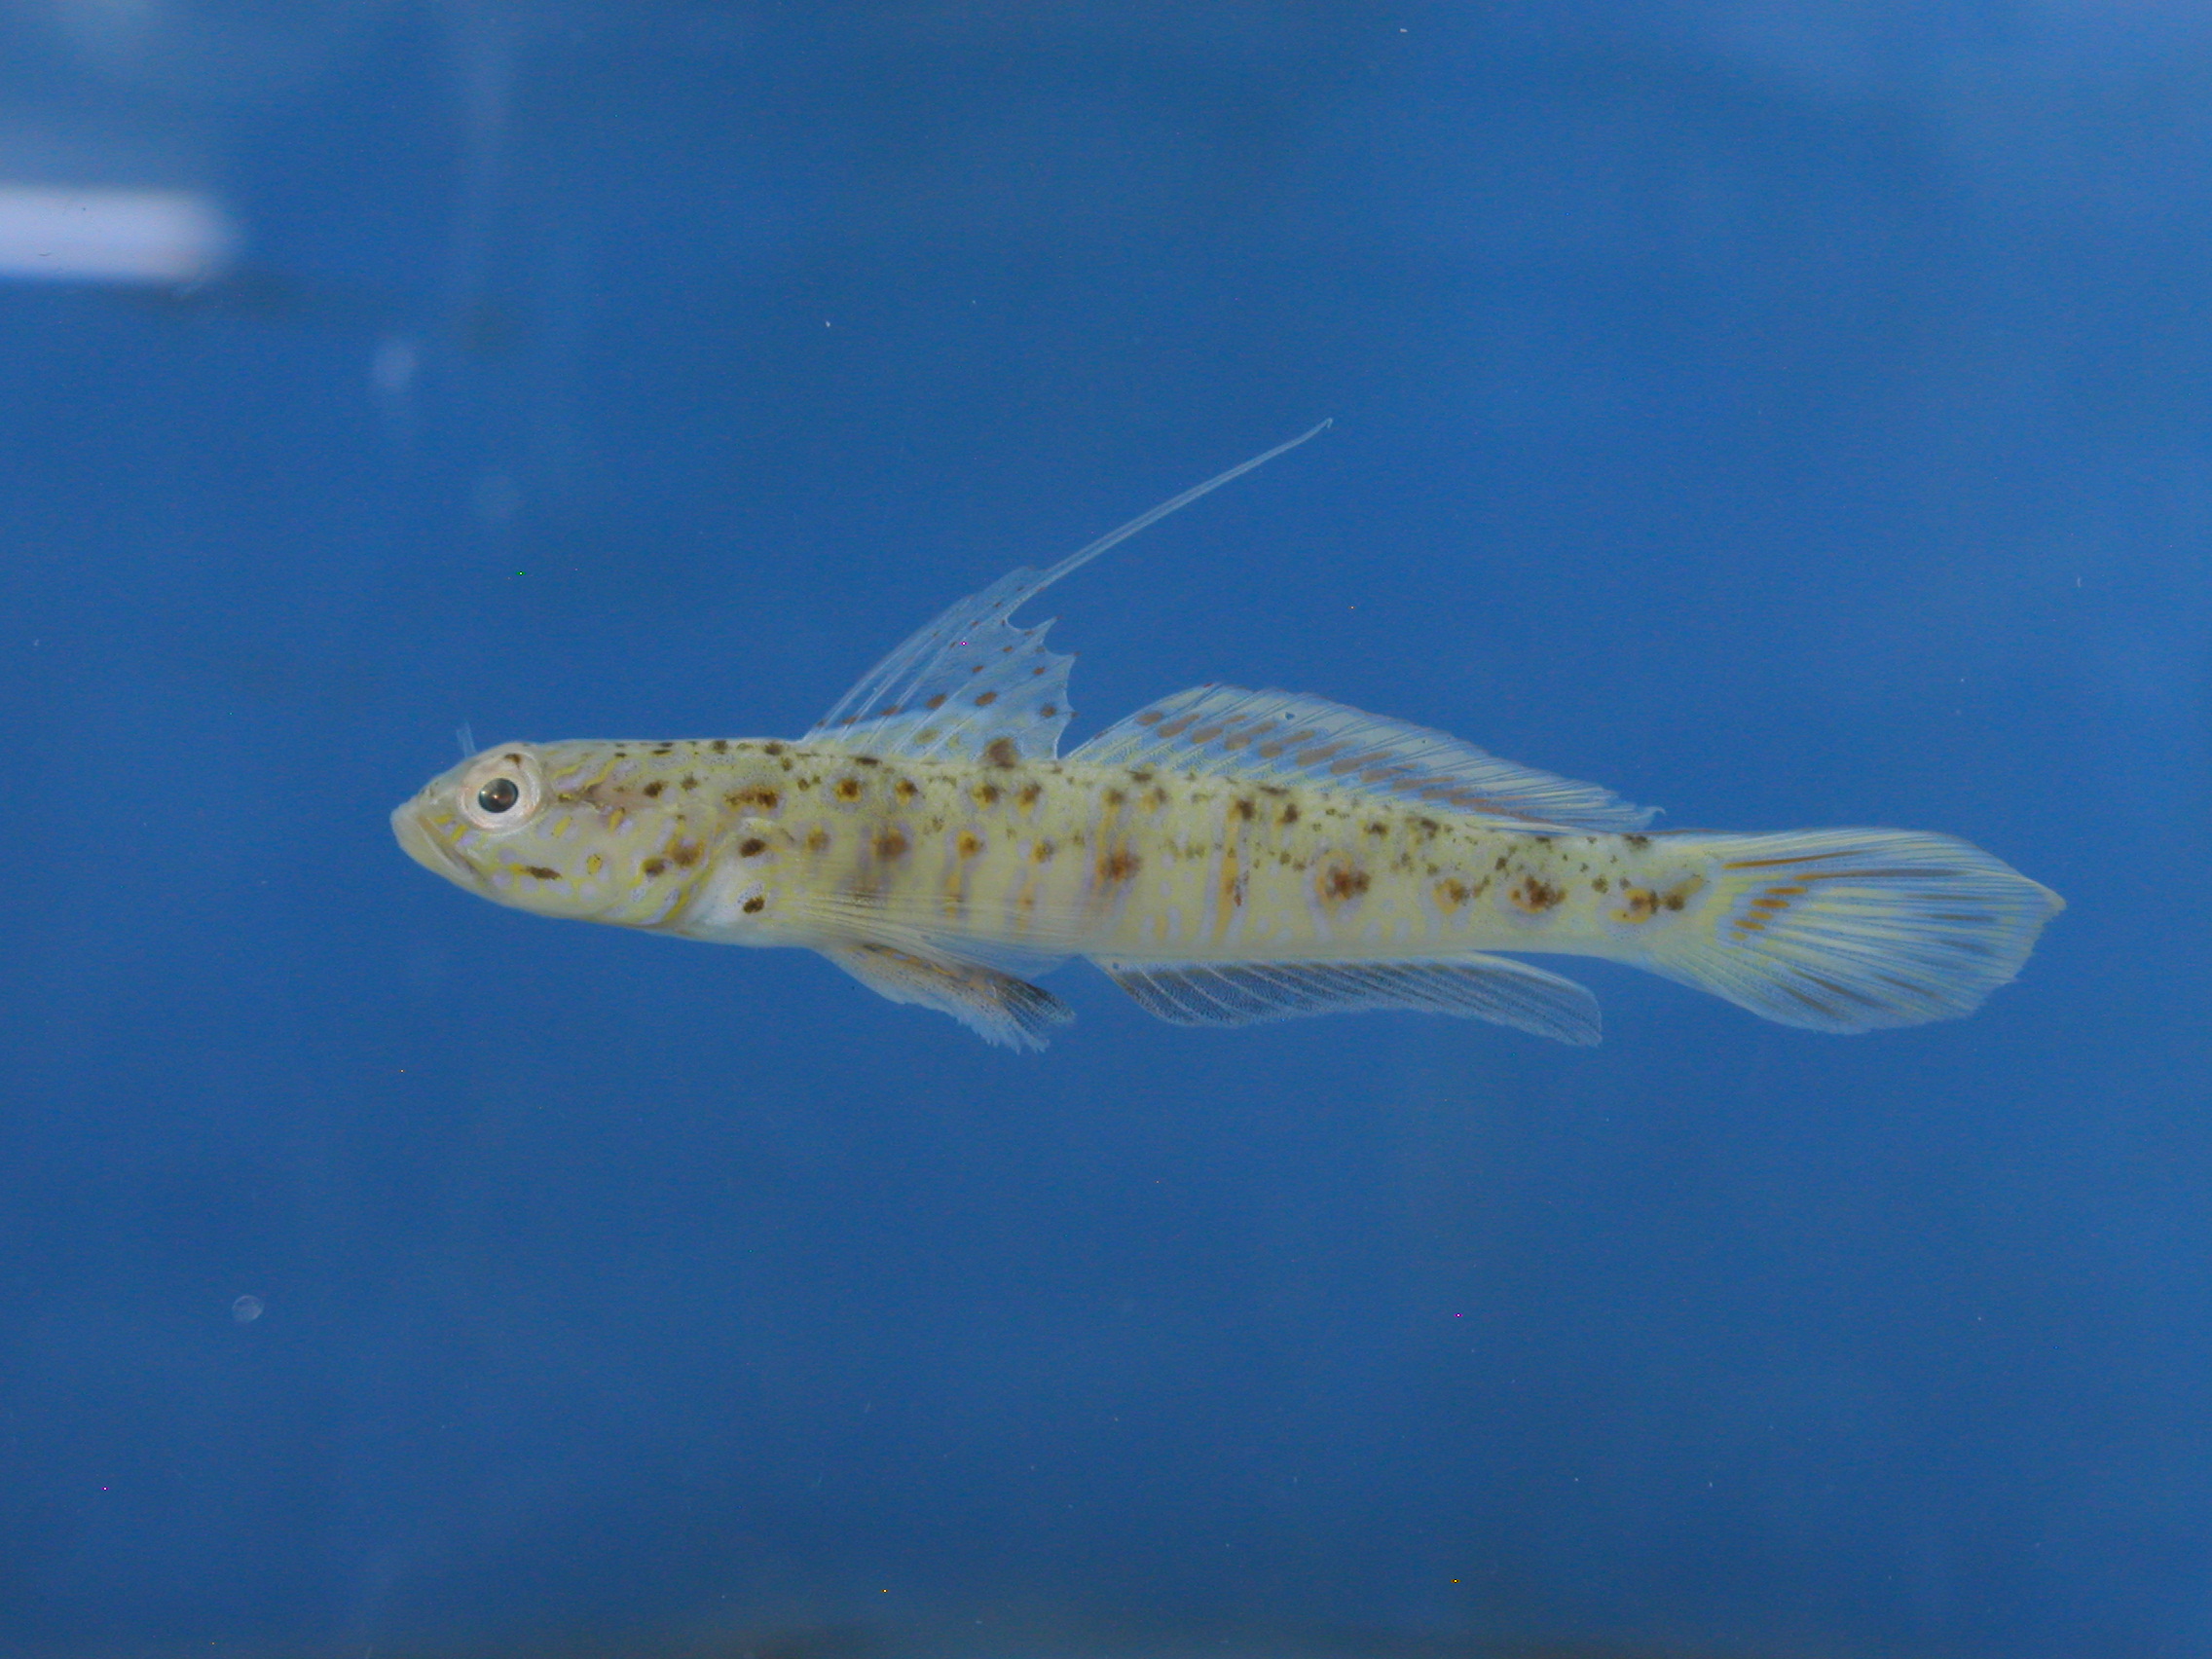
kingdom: Animalia
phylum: Chordata
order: Perciformes
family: Gobiidae
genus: Vanderhorstia
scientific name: Vanderhorstia ornatissima
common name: Blue-barred shrimp-goby
